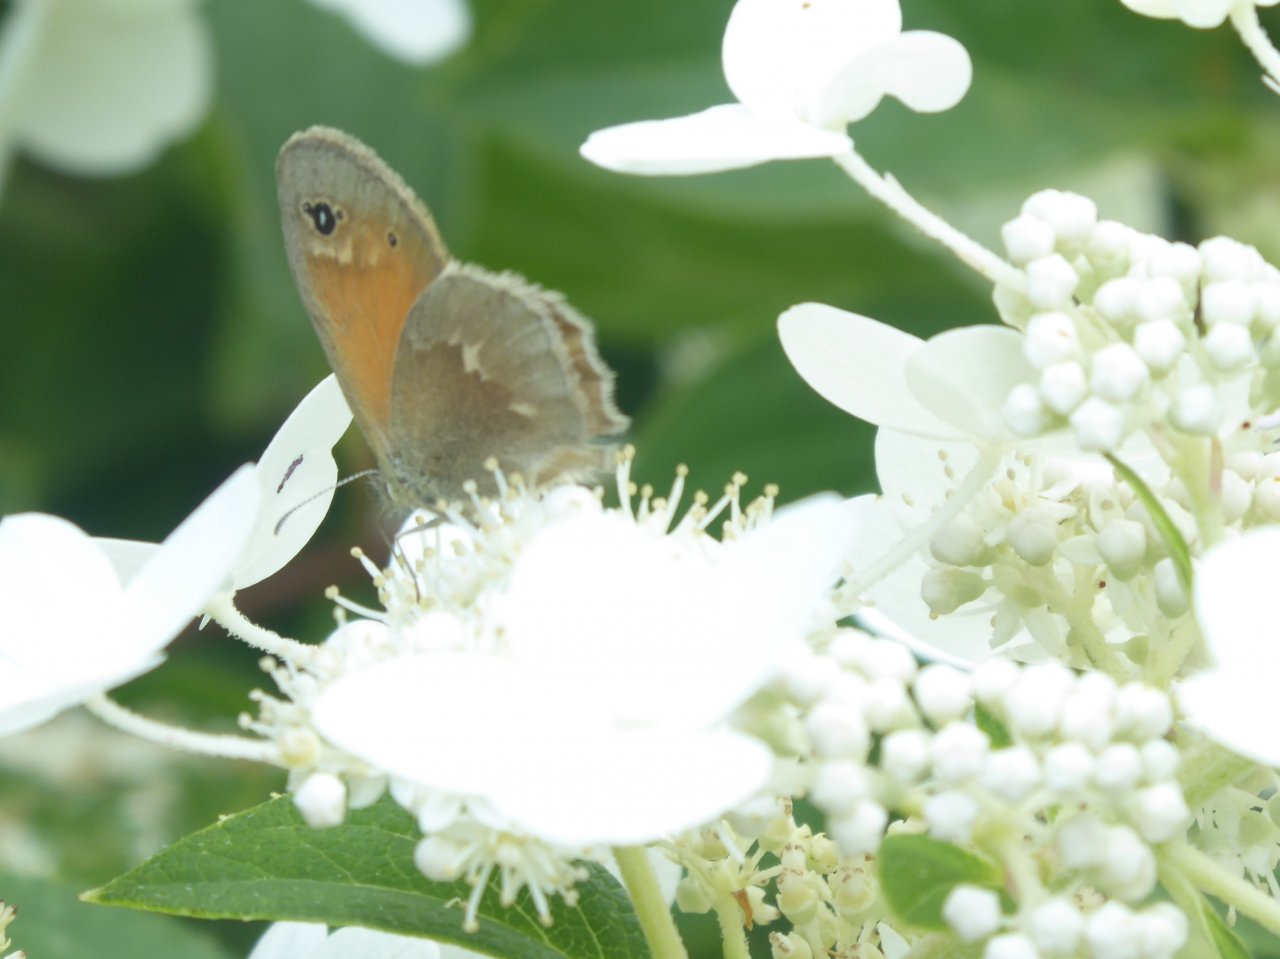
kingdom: Animalia
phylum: Arthropoda
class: Insecta
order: Lepidoptera
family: Nymphalidae
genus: Coenonympha
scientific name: Coenonympha tullia
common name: Large Heath
